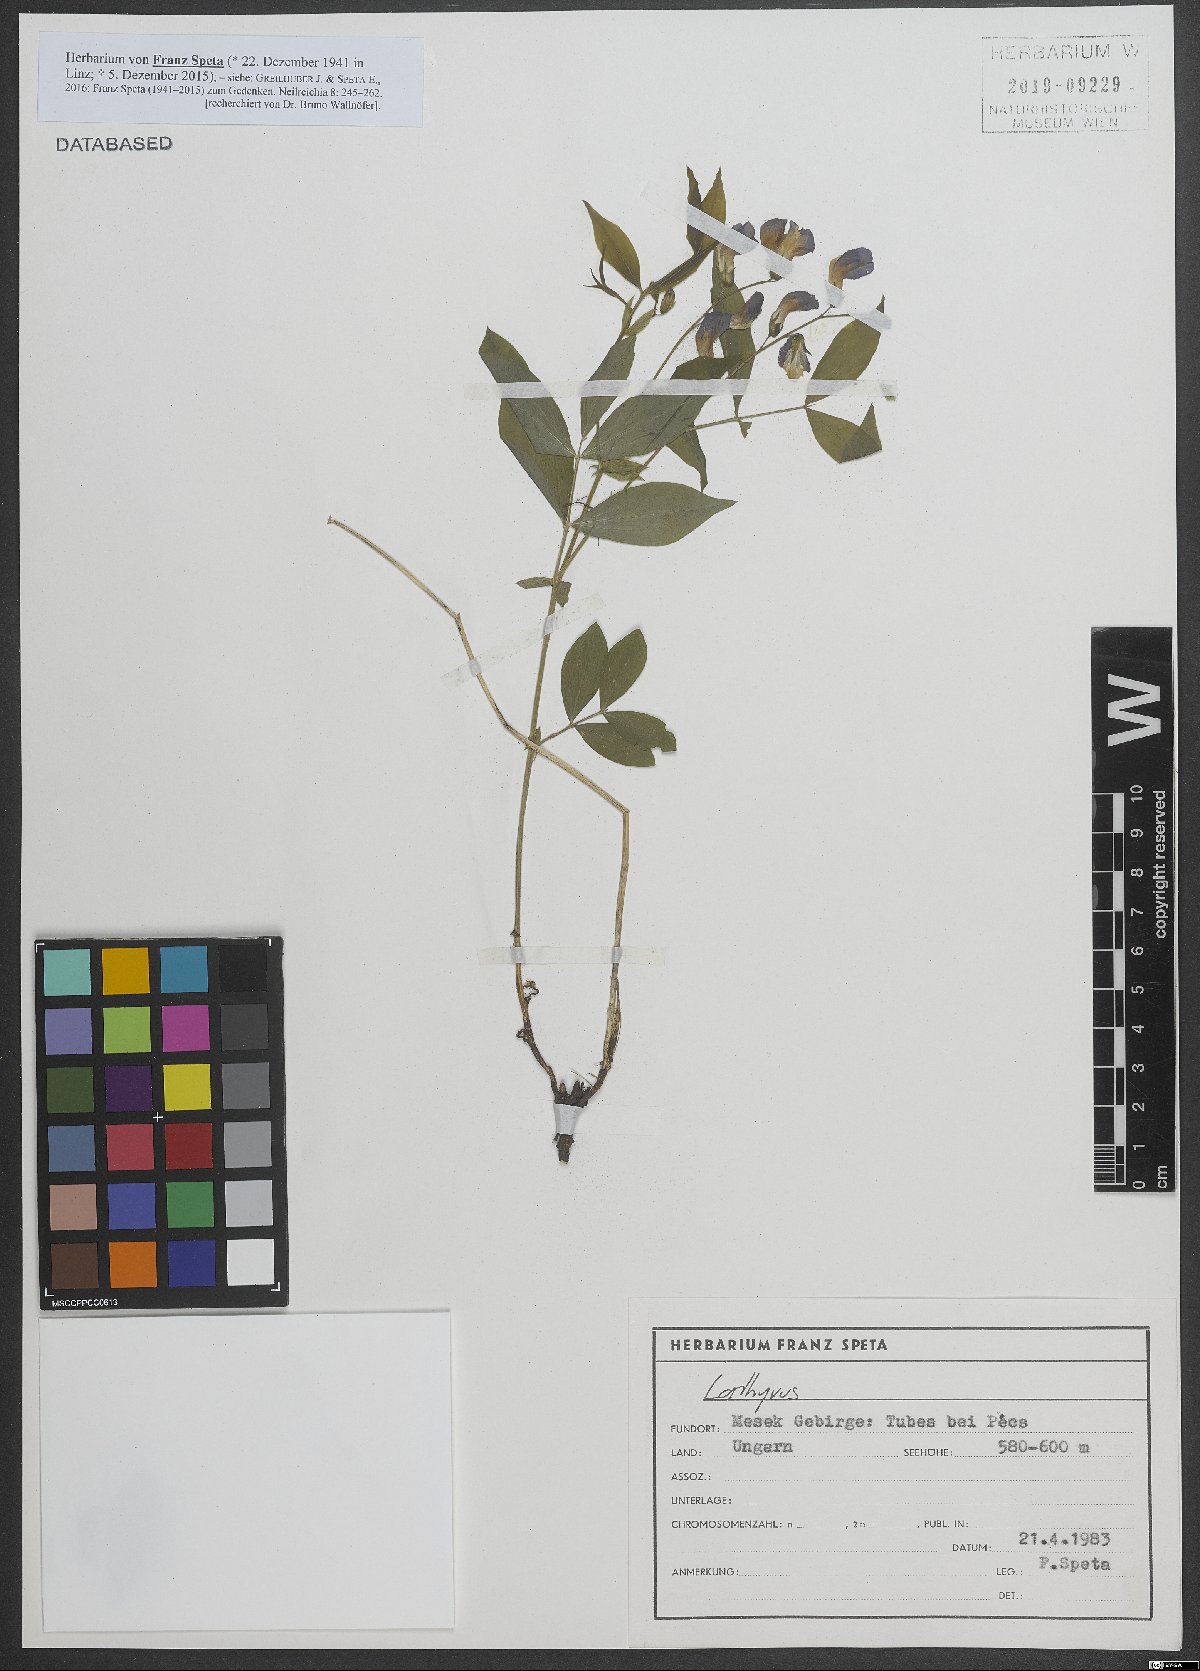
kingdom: Plantae
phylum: Tracheophyta
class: Magnoliopsida
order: Fabales
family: Fabaceae
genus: Lathyrus
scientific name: Lathyrus
